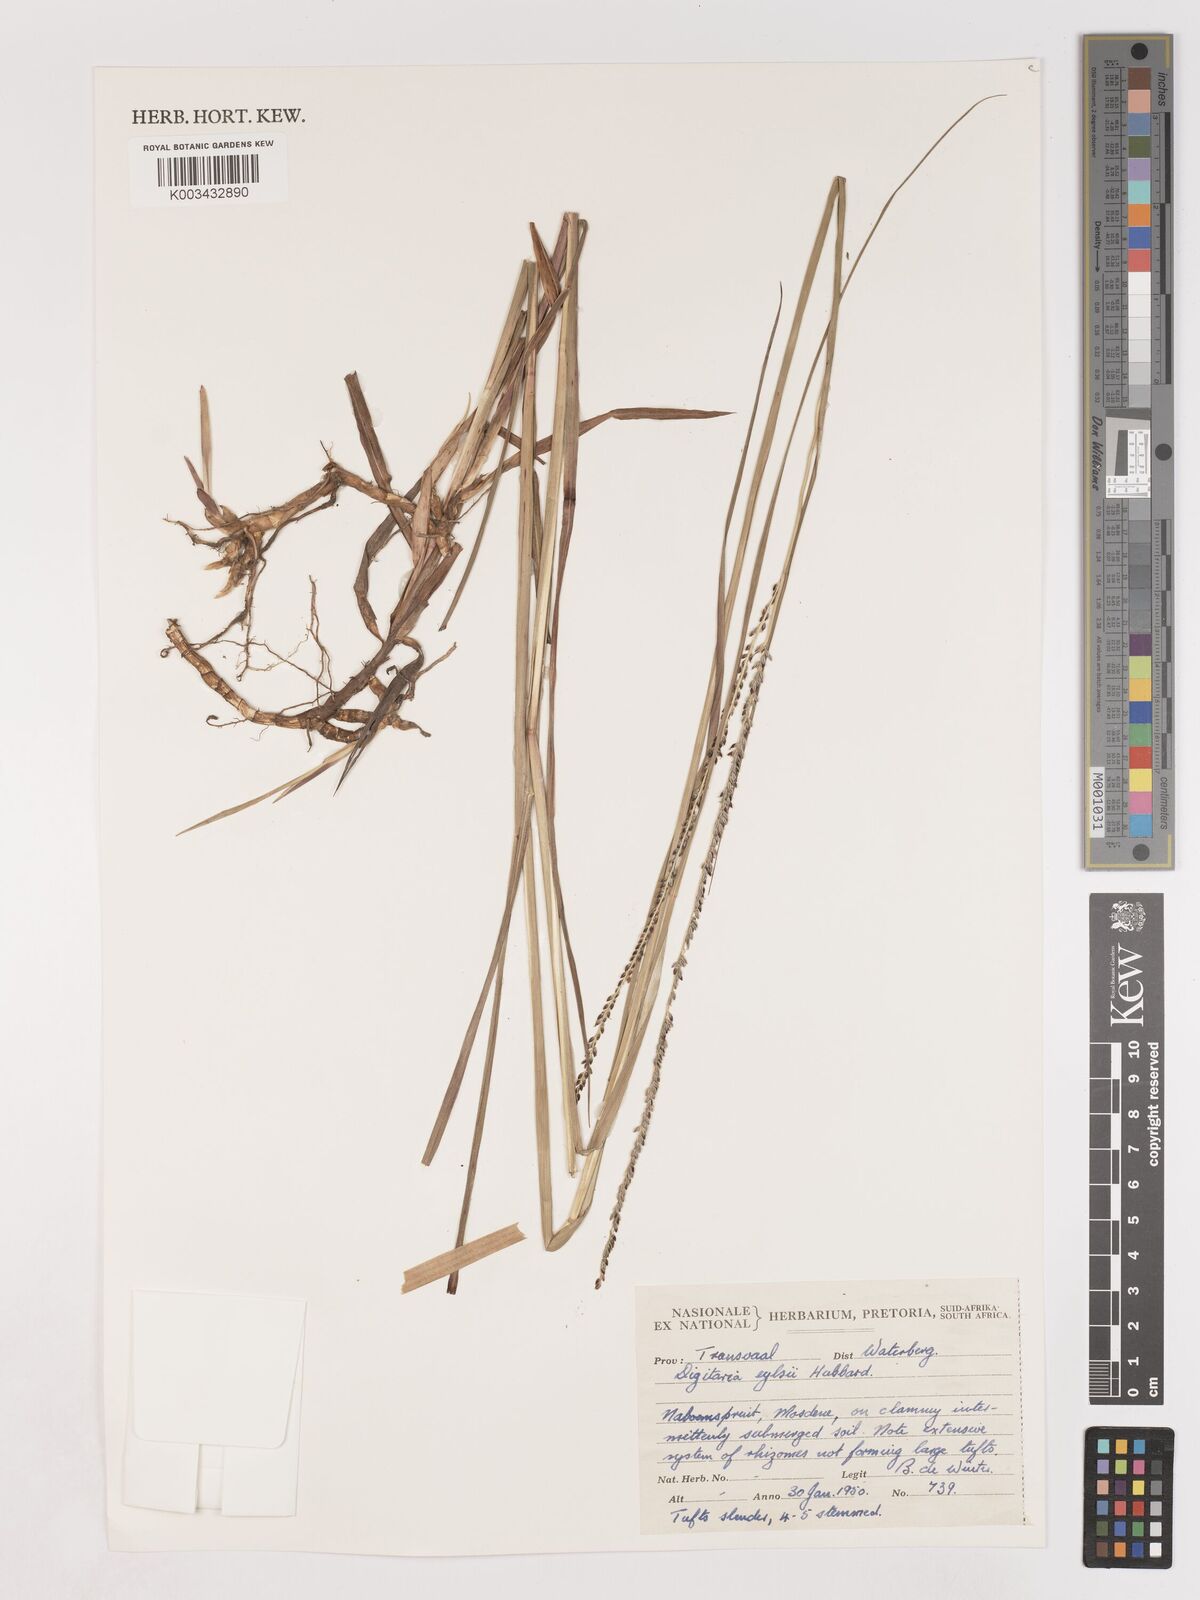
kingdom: Plantae
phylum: Tracheophyta
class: Liliopsida
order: Poales
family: Poaceae
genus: Digitaria
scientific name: Digitaria eylesii
